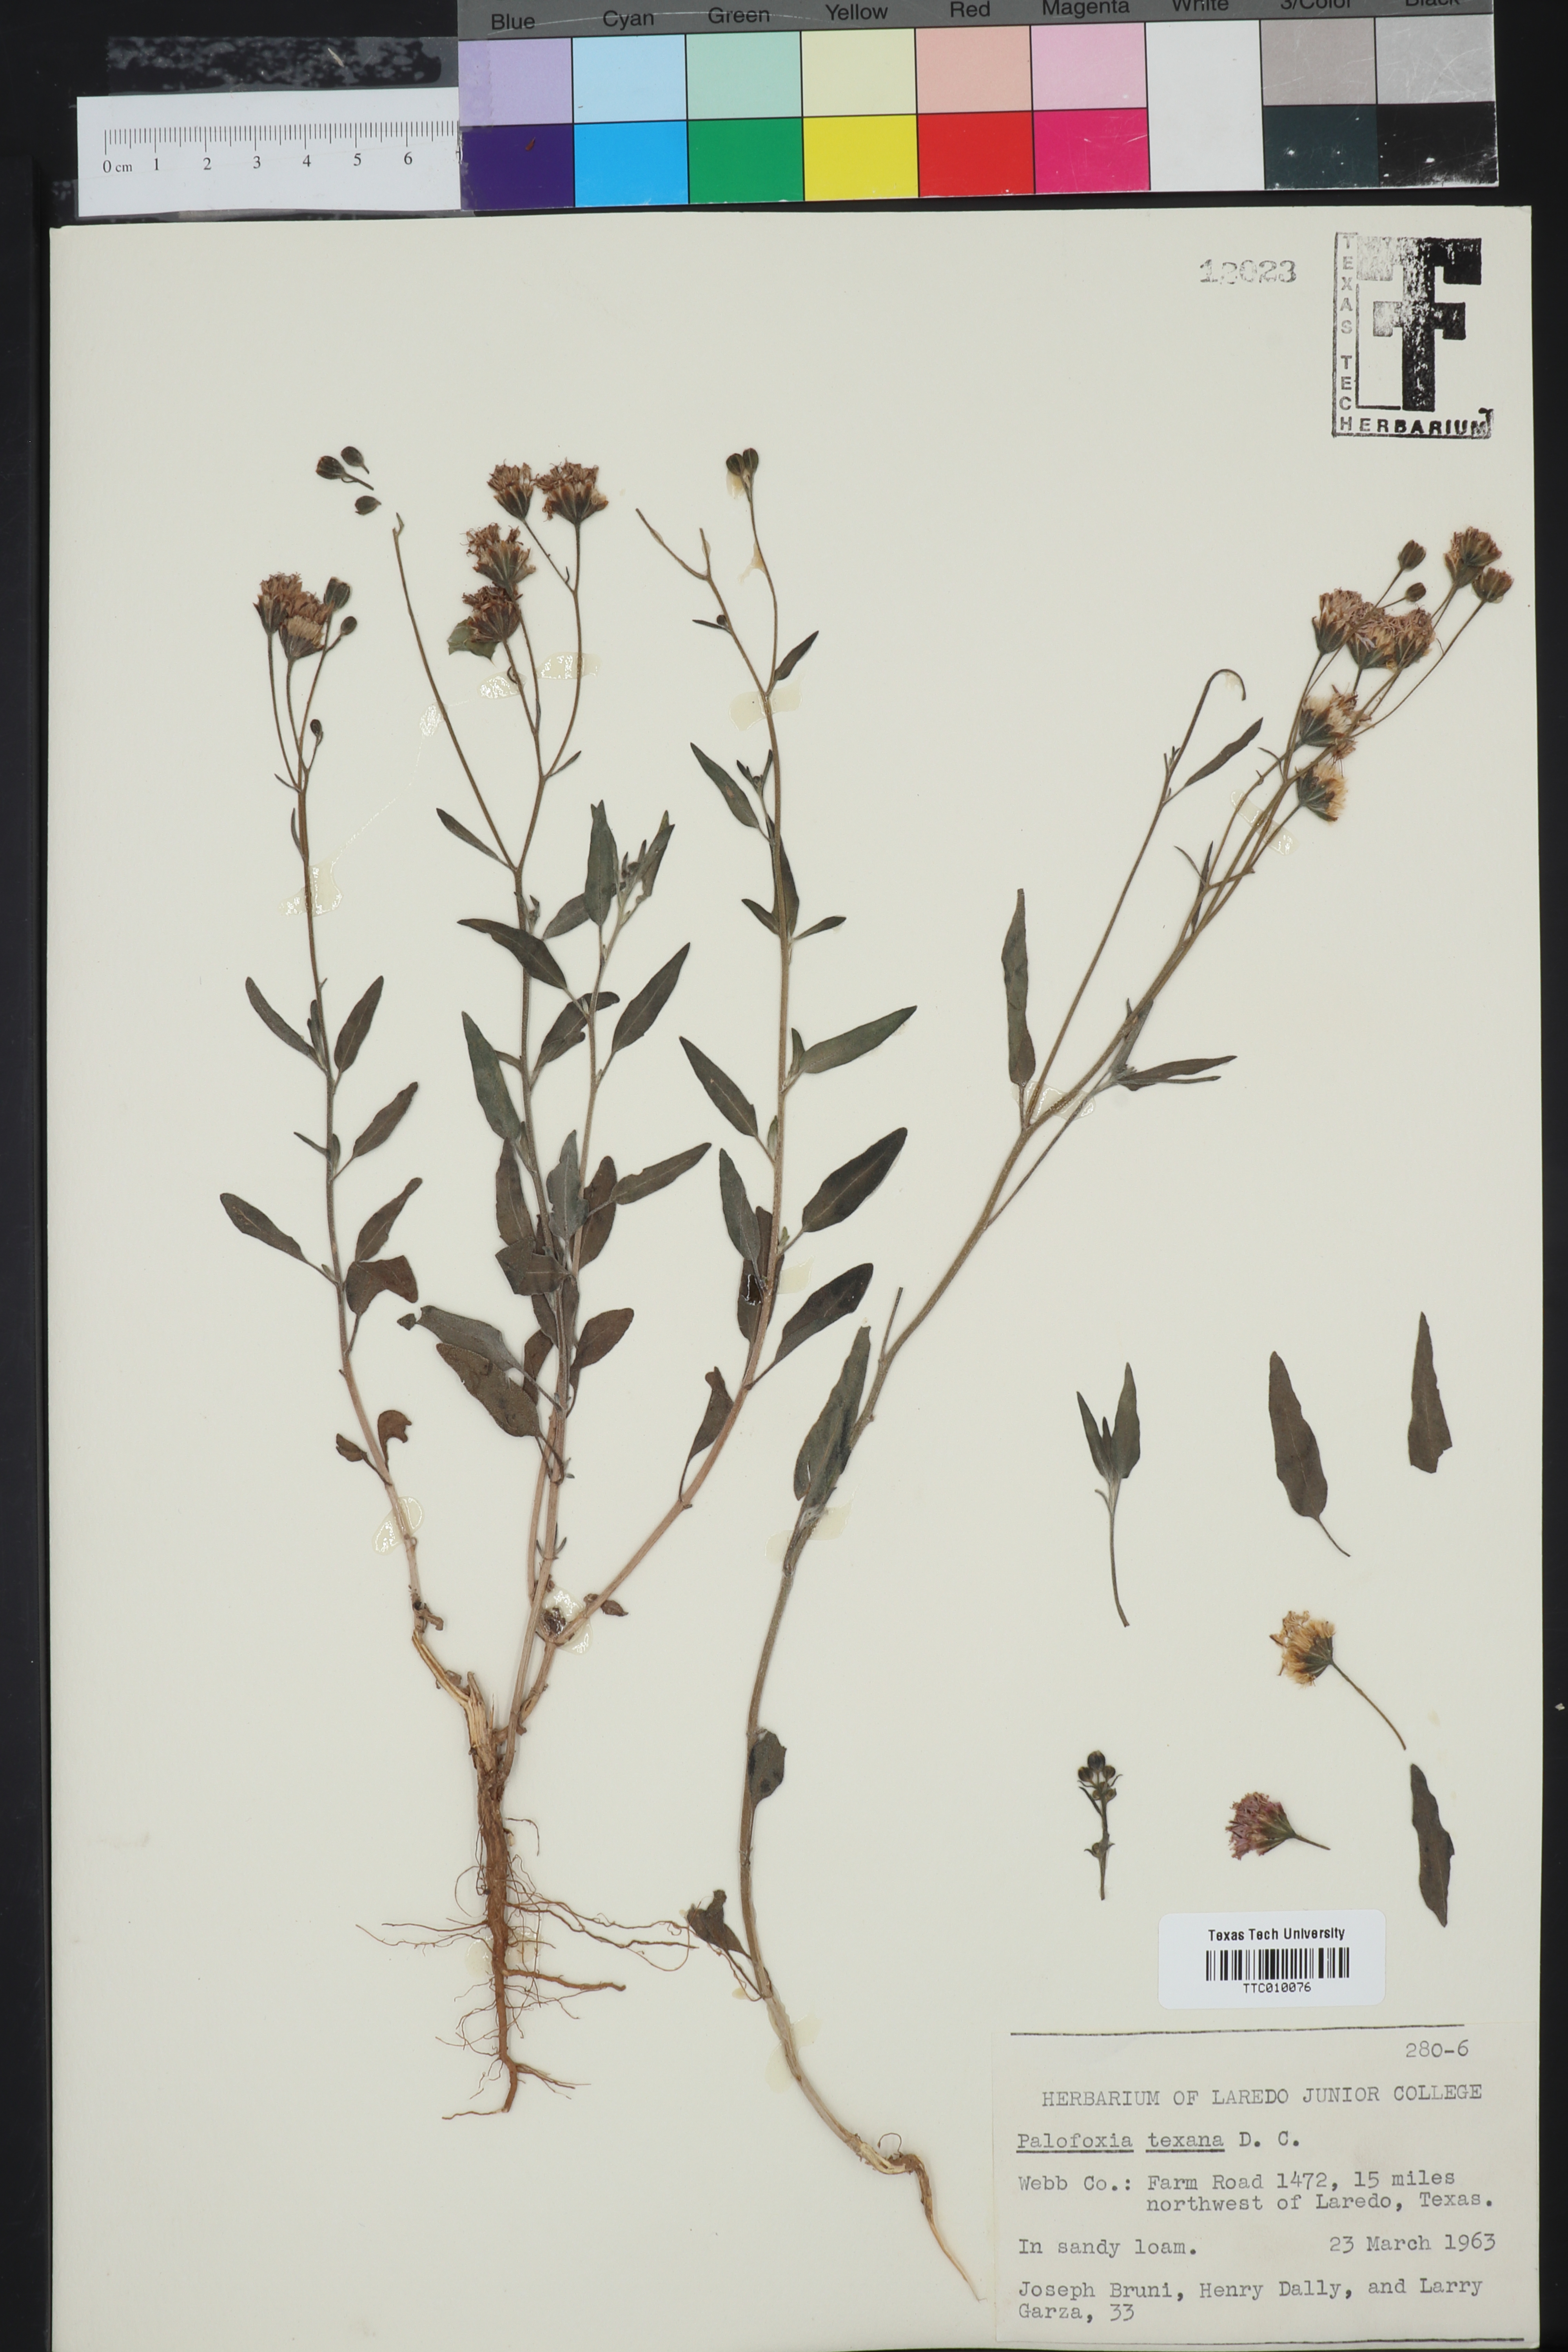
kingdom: Plantae
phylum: Tracheophyta
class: Magnoliopsida
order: Asterales
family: Asteraceae
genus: Palafoxia
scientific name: Palafoxia texana
